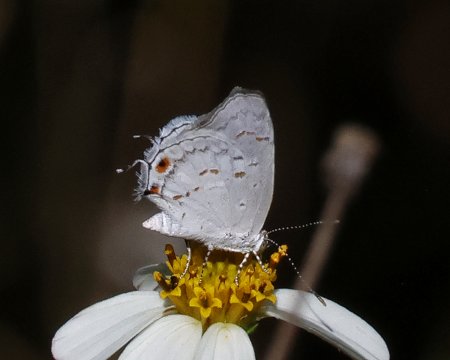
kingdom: Animalia
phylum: Arthropoda
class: Insecta
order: Lepidoptera
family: Lycaenidae
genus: Thecla
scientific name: Thecla una
